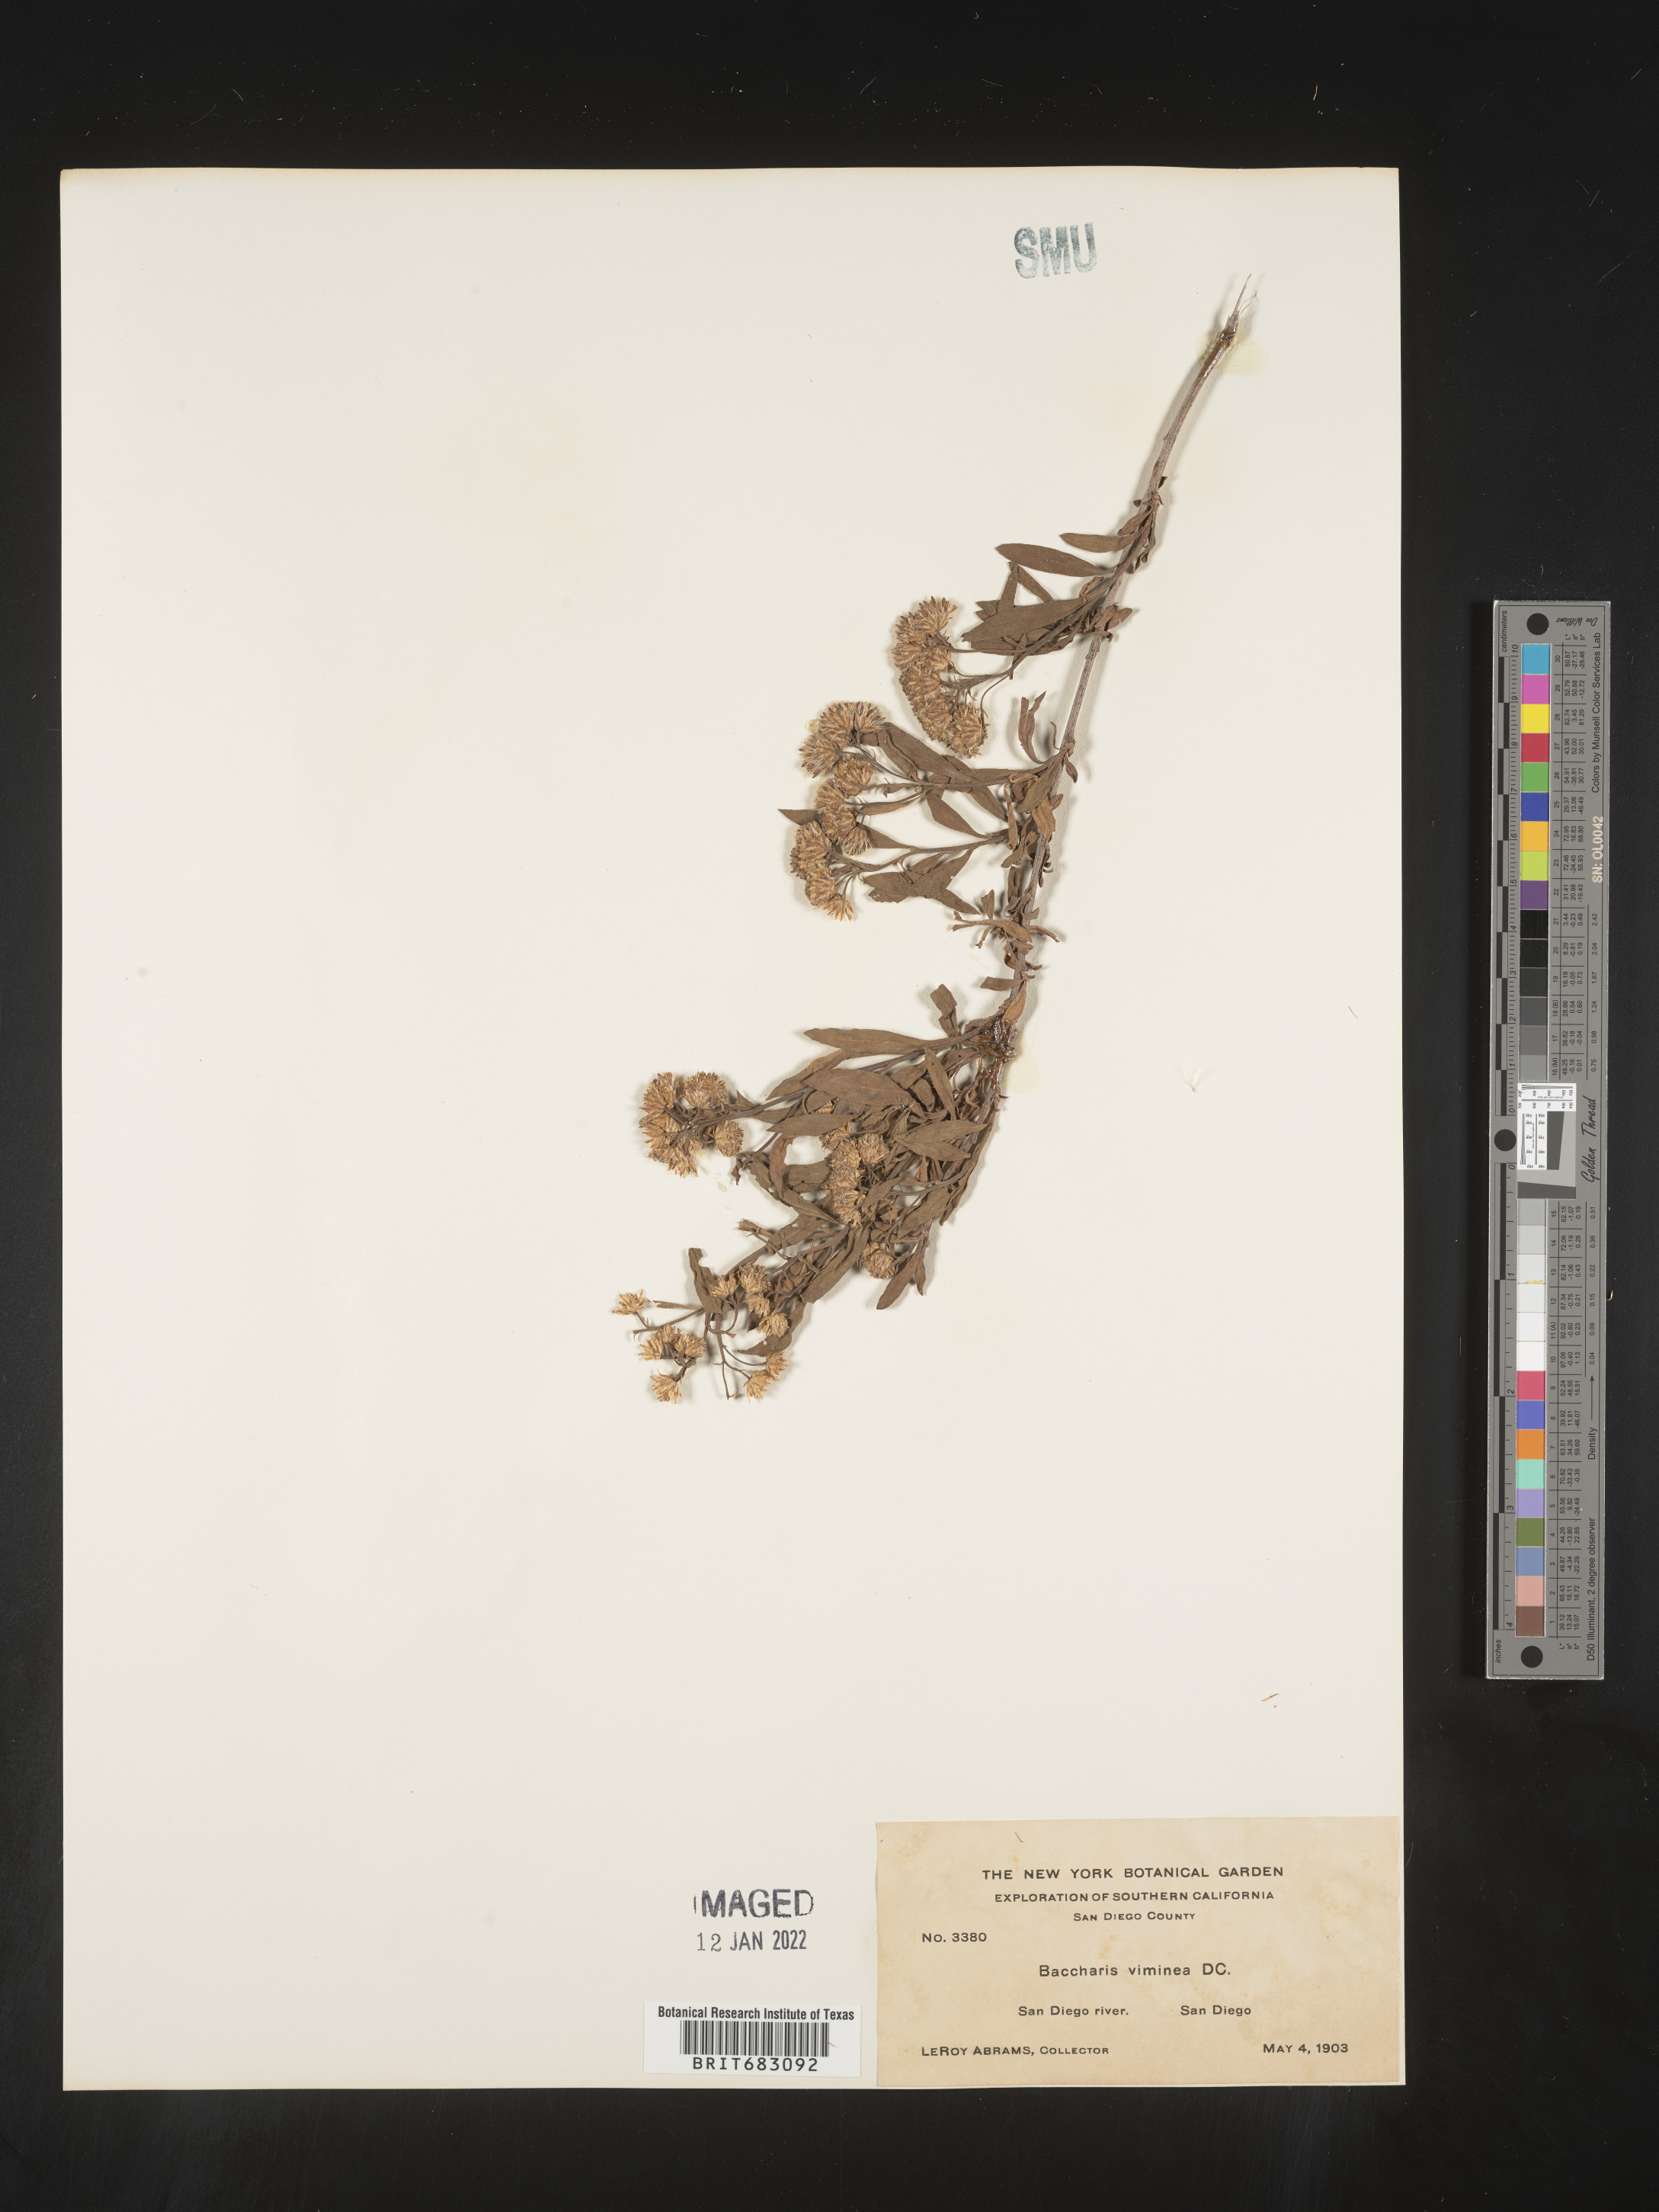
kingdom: Plantae
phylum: Tracheophyta
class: Magnoliopsida
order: Asterales
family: Asteraceae
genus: Baccharis
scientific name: Baccharis salicifolia
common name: Sticky baccharis
